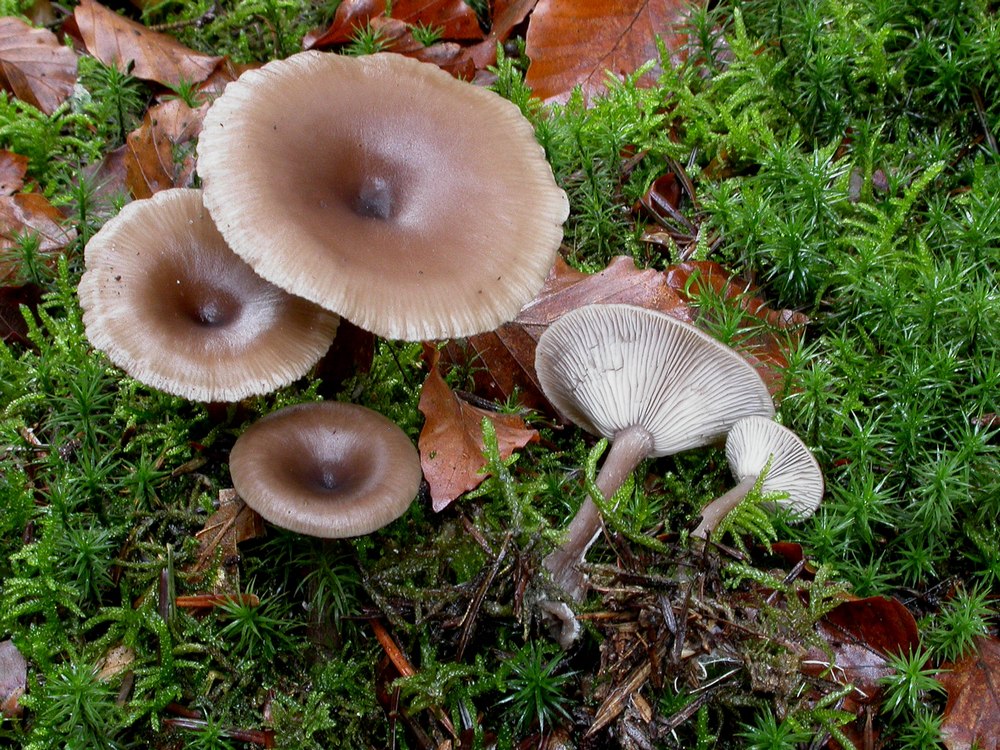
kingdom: Fungi
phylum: Basidiomycota
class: Agaricomycetes
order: Agaricales
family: Pseudoclitocybaceae
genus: Pseudoclitocybe
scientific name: Pseudoclitocybe cyathiformis
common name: almindelig bægertragthat
